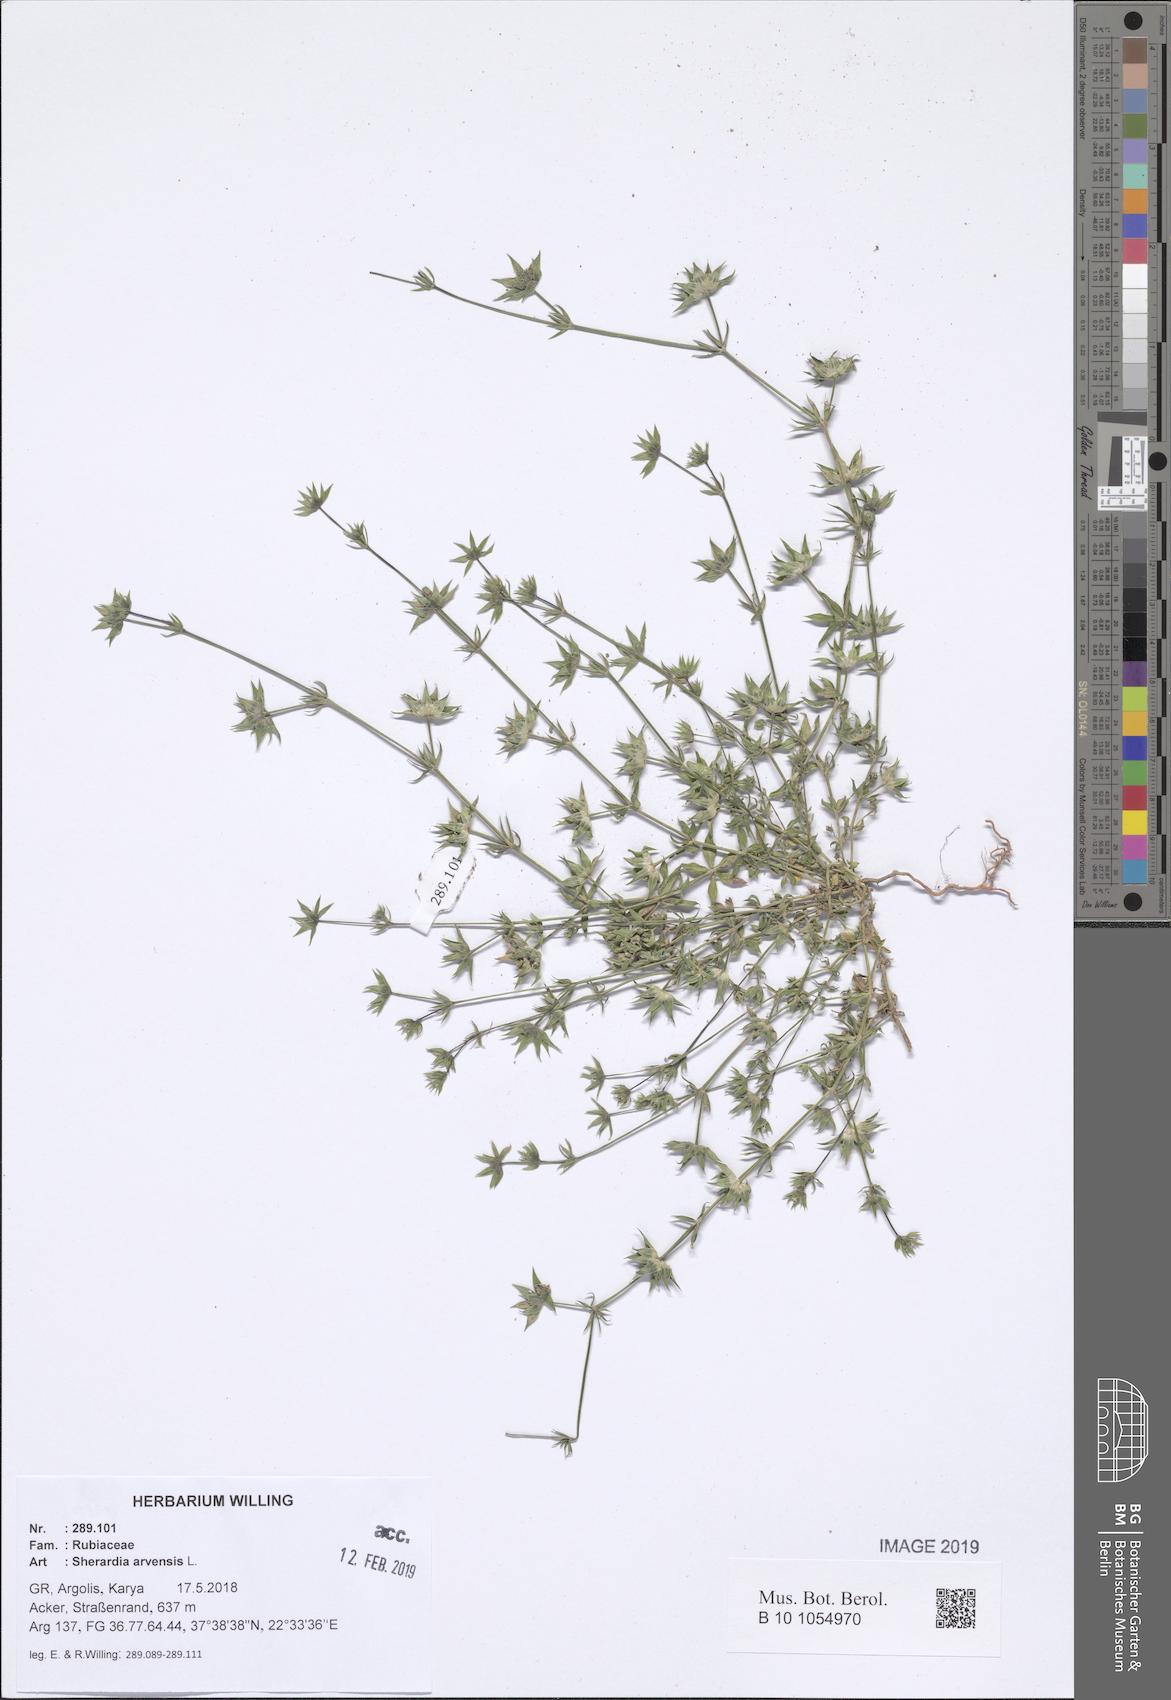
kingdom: Plantae
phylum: Tracheophyta
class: Magnoliopsida
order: Gentianales
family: Rubiaceae
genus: Sherardia
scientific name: Sherardia arvensis
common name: Field madder
